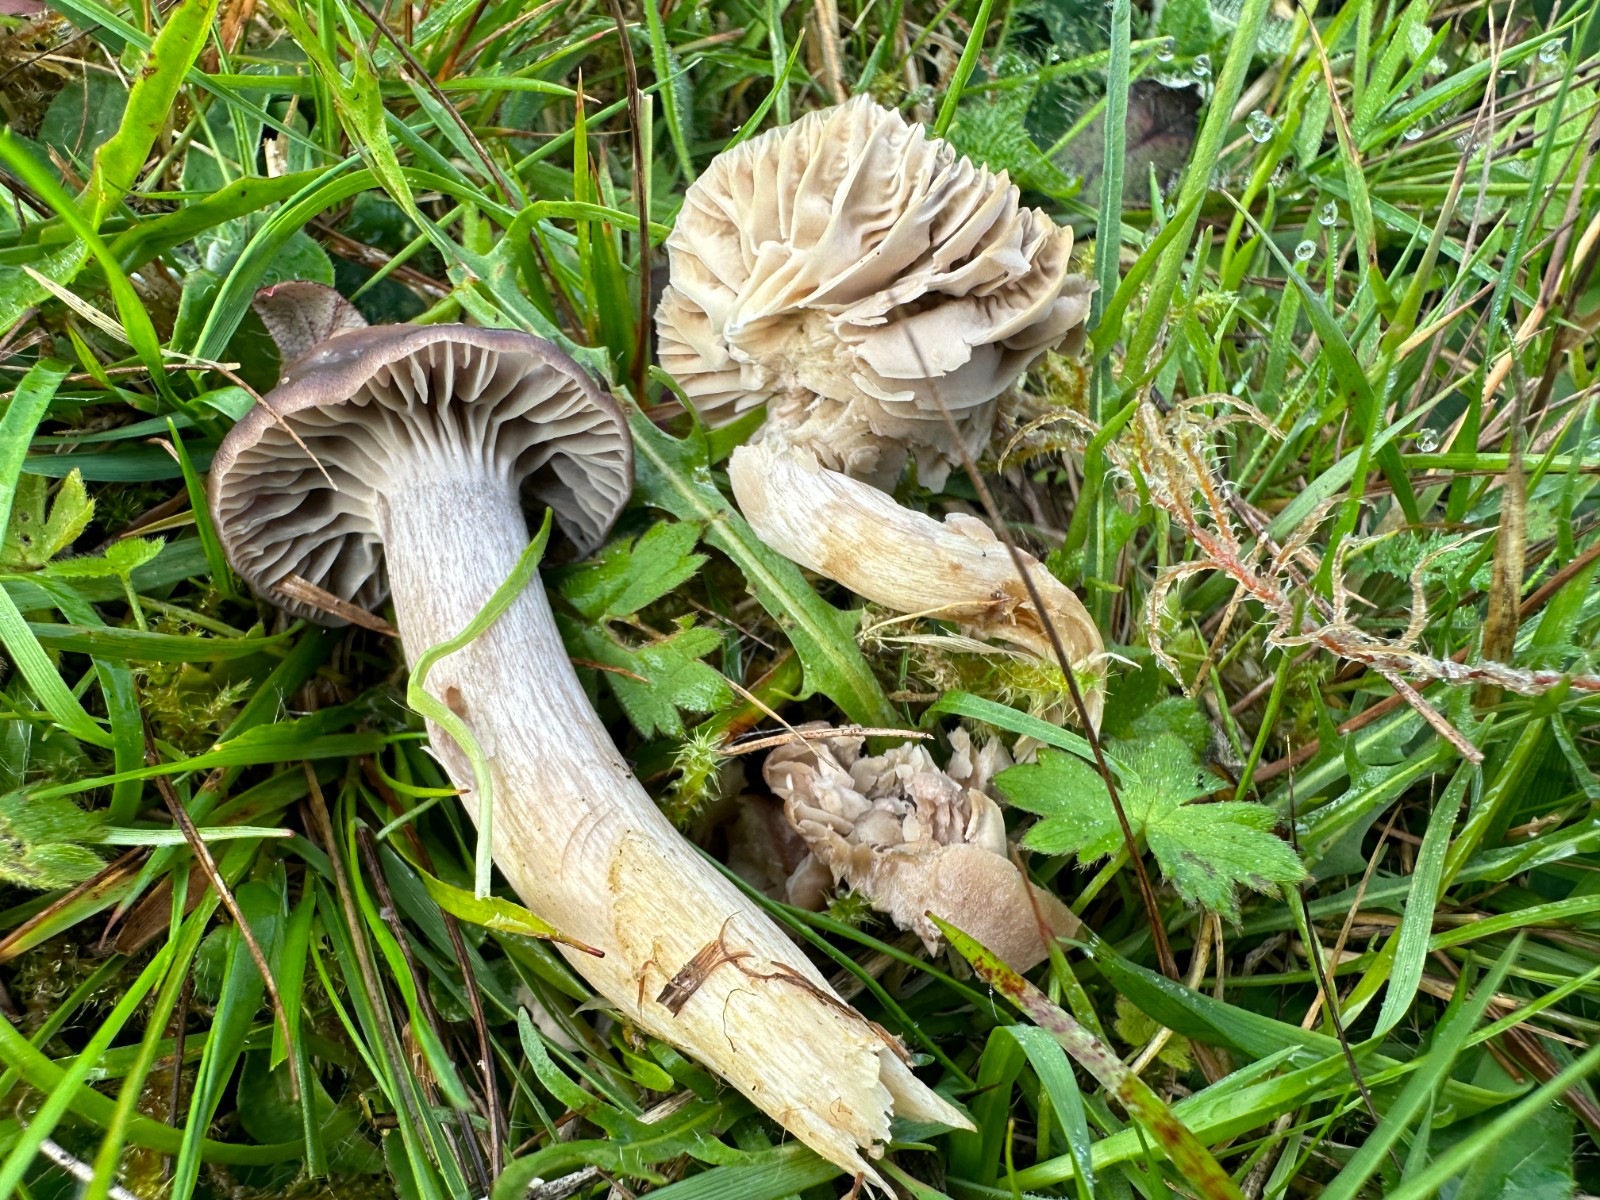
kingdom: Fungi
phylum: Basidiomycota
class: Agaricomycetes
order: Agaricales
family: Hygrophoraceae
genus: Cuphophyllus
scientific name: Cuphophyllus flavipes
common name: gulfodet vokshat
